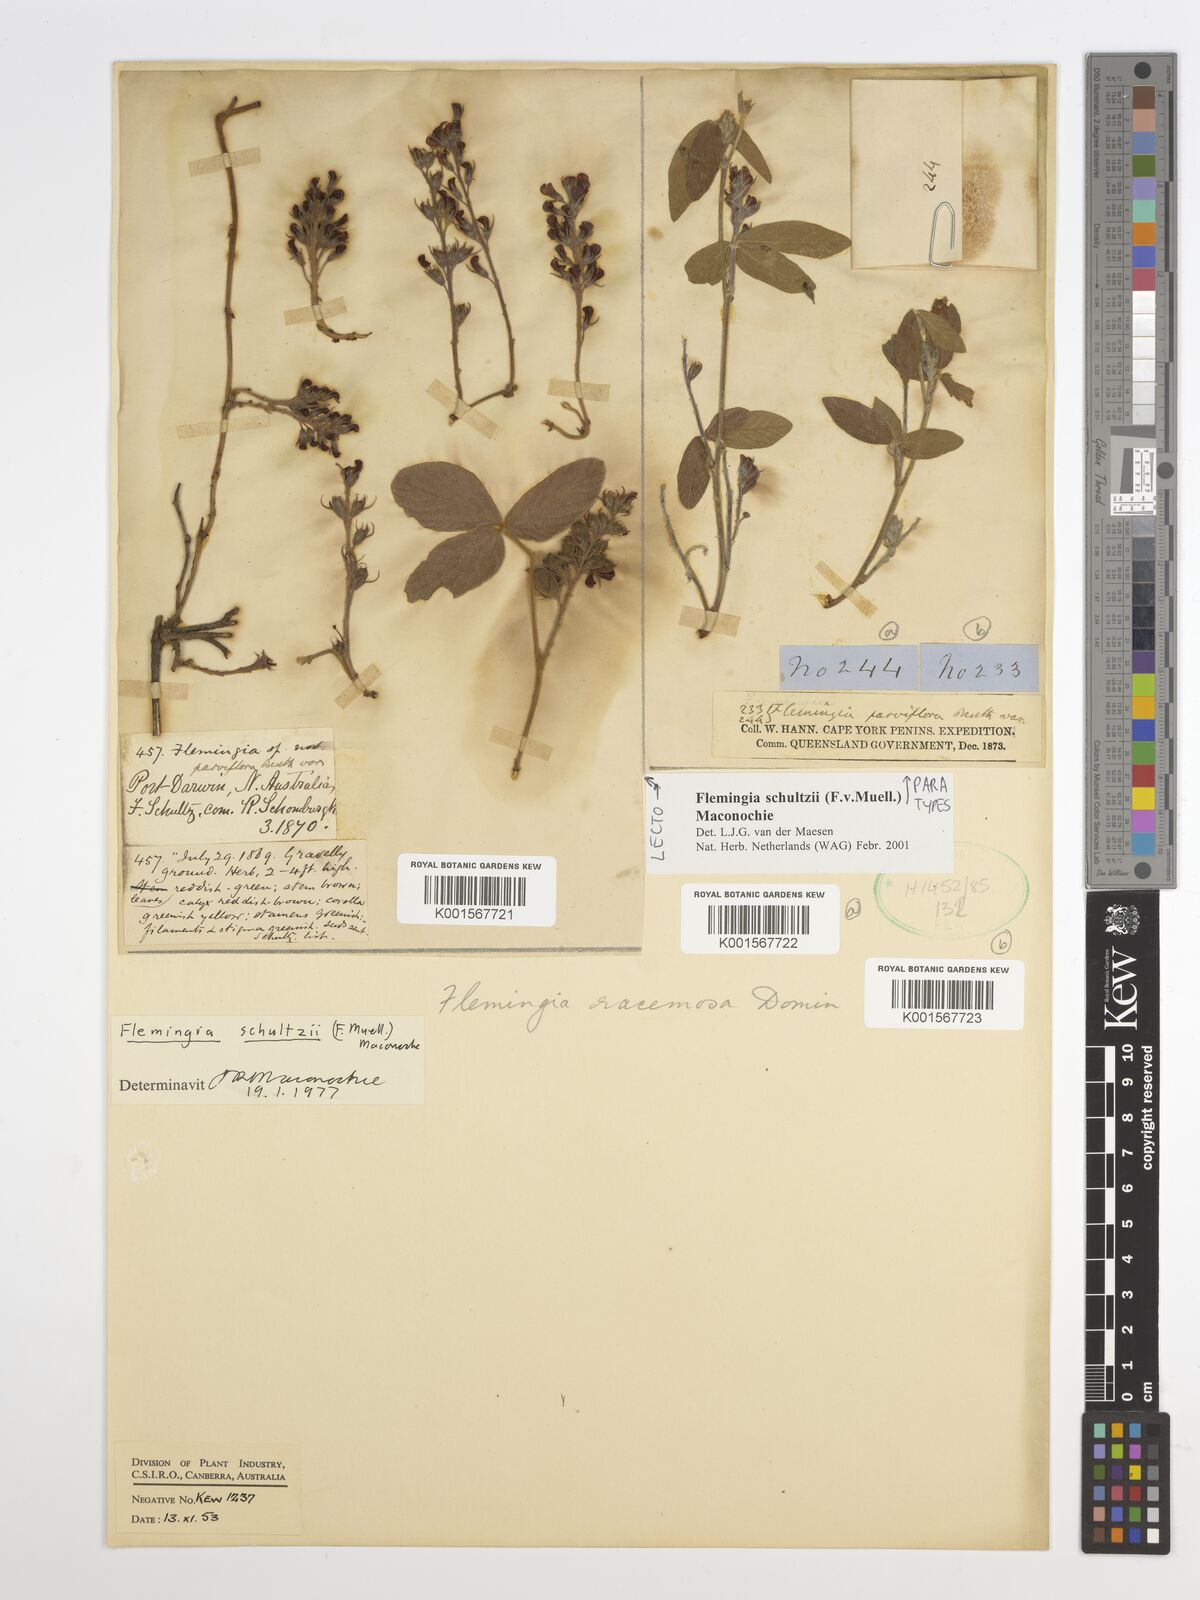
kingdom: Plantae
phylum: Tracheophyta
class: Magnoliopsida
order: Fabales
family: Fabaceae
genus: Flemingia
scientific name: Flemingia parviflora
